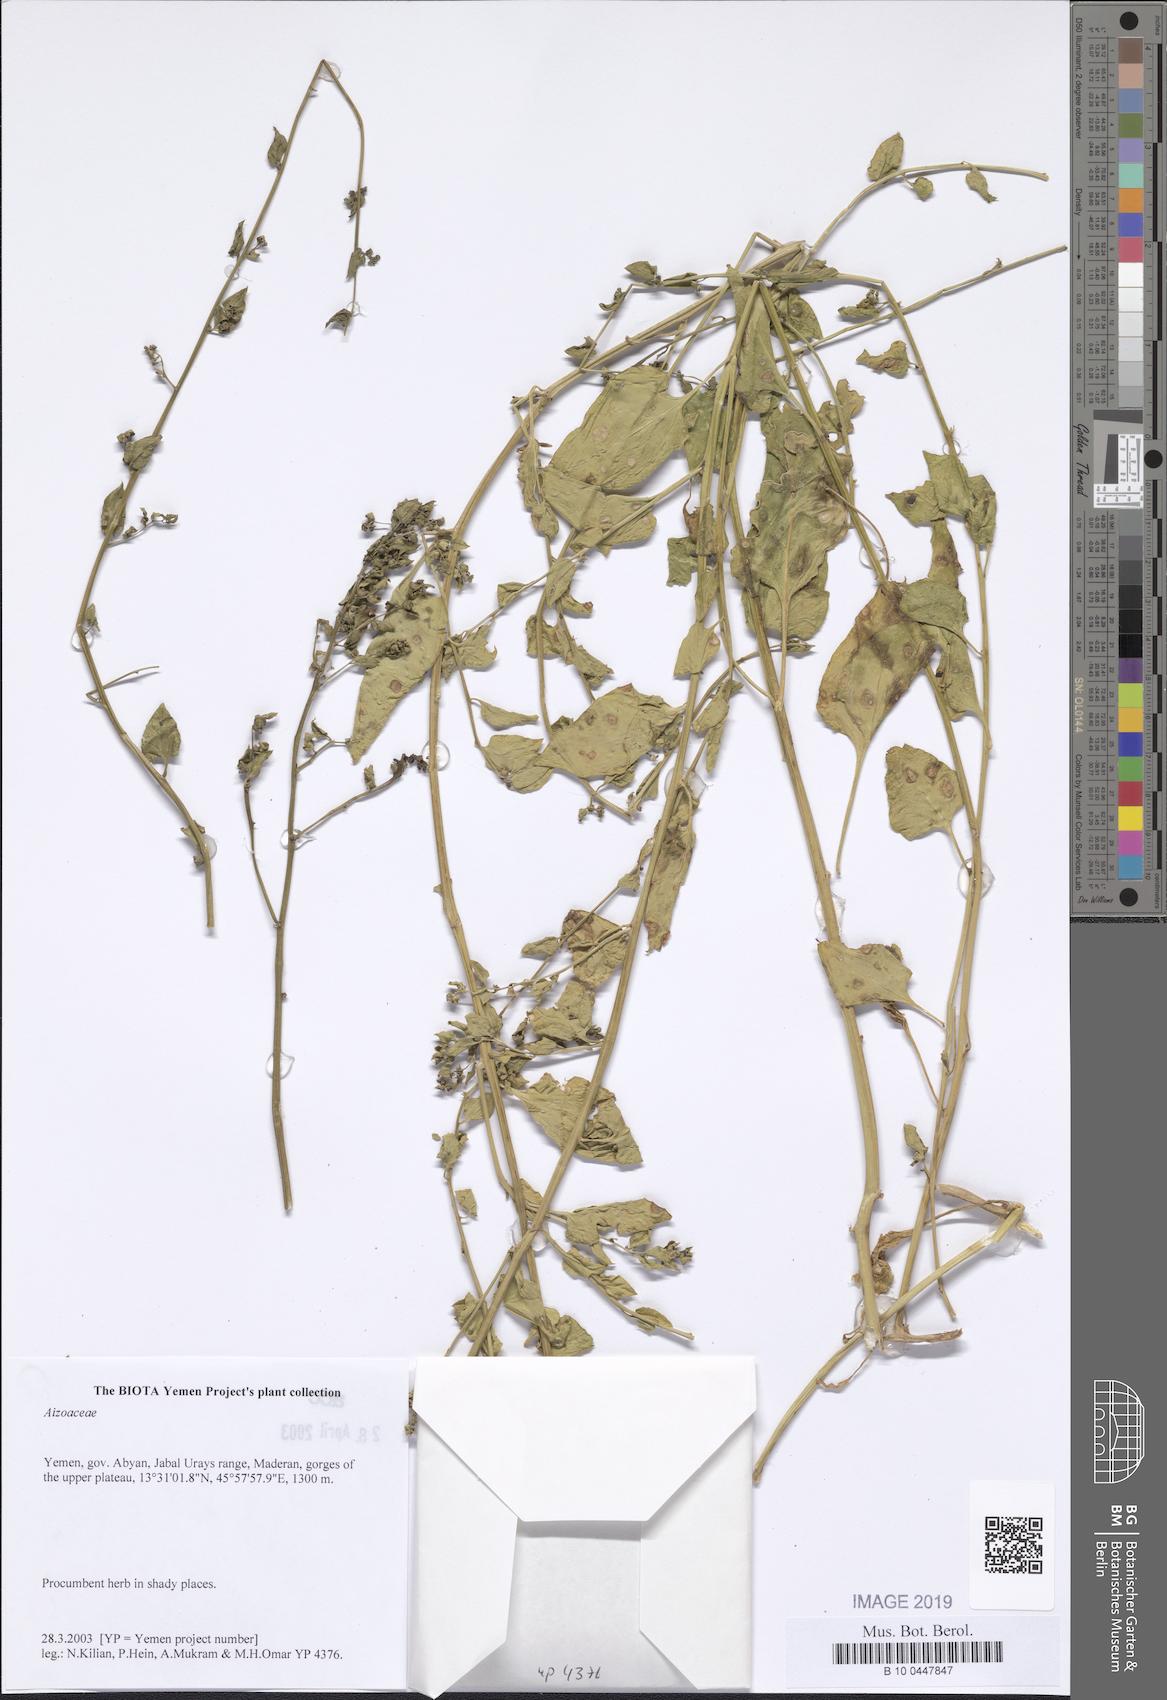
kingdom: Plantae
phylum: Tracheophyta
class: Magnoliopsida
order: Caryophyllales
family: Aizoaceae
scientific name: Aizoaceae
